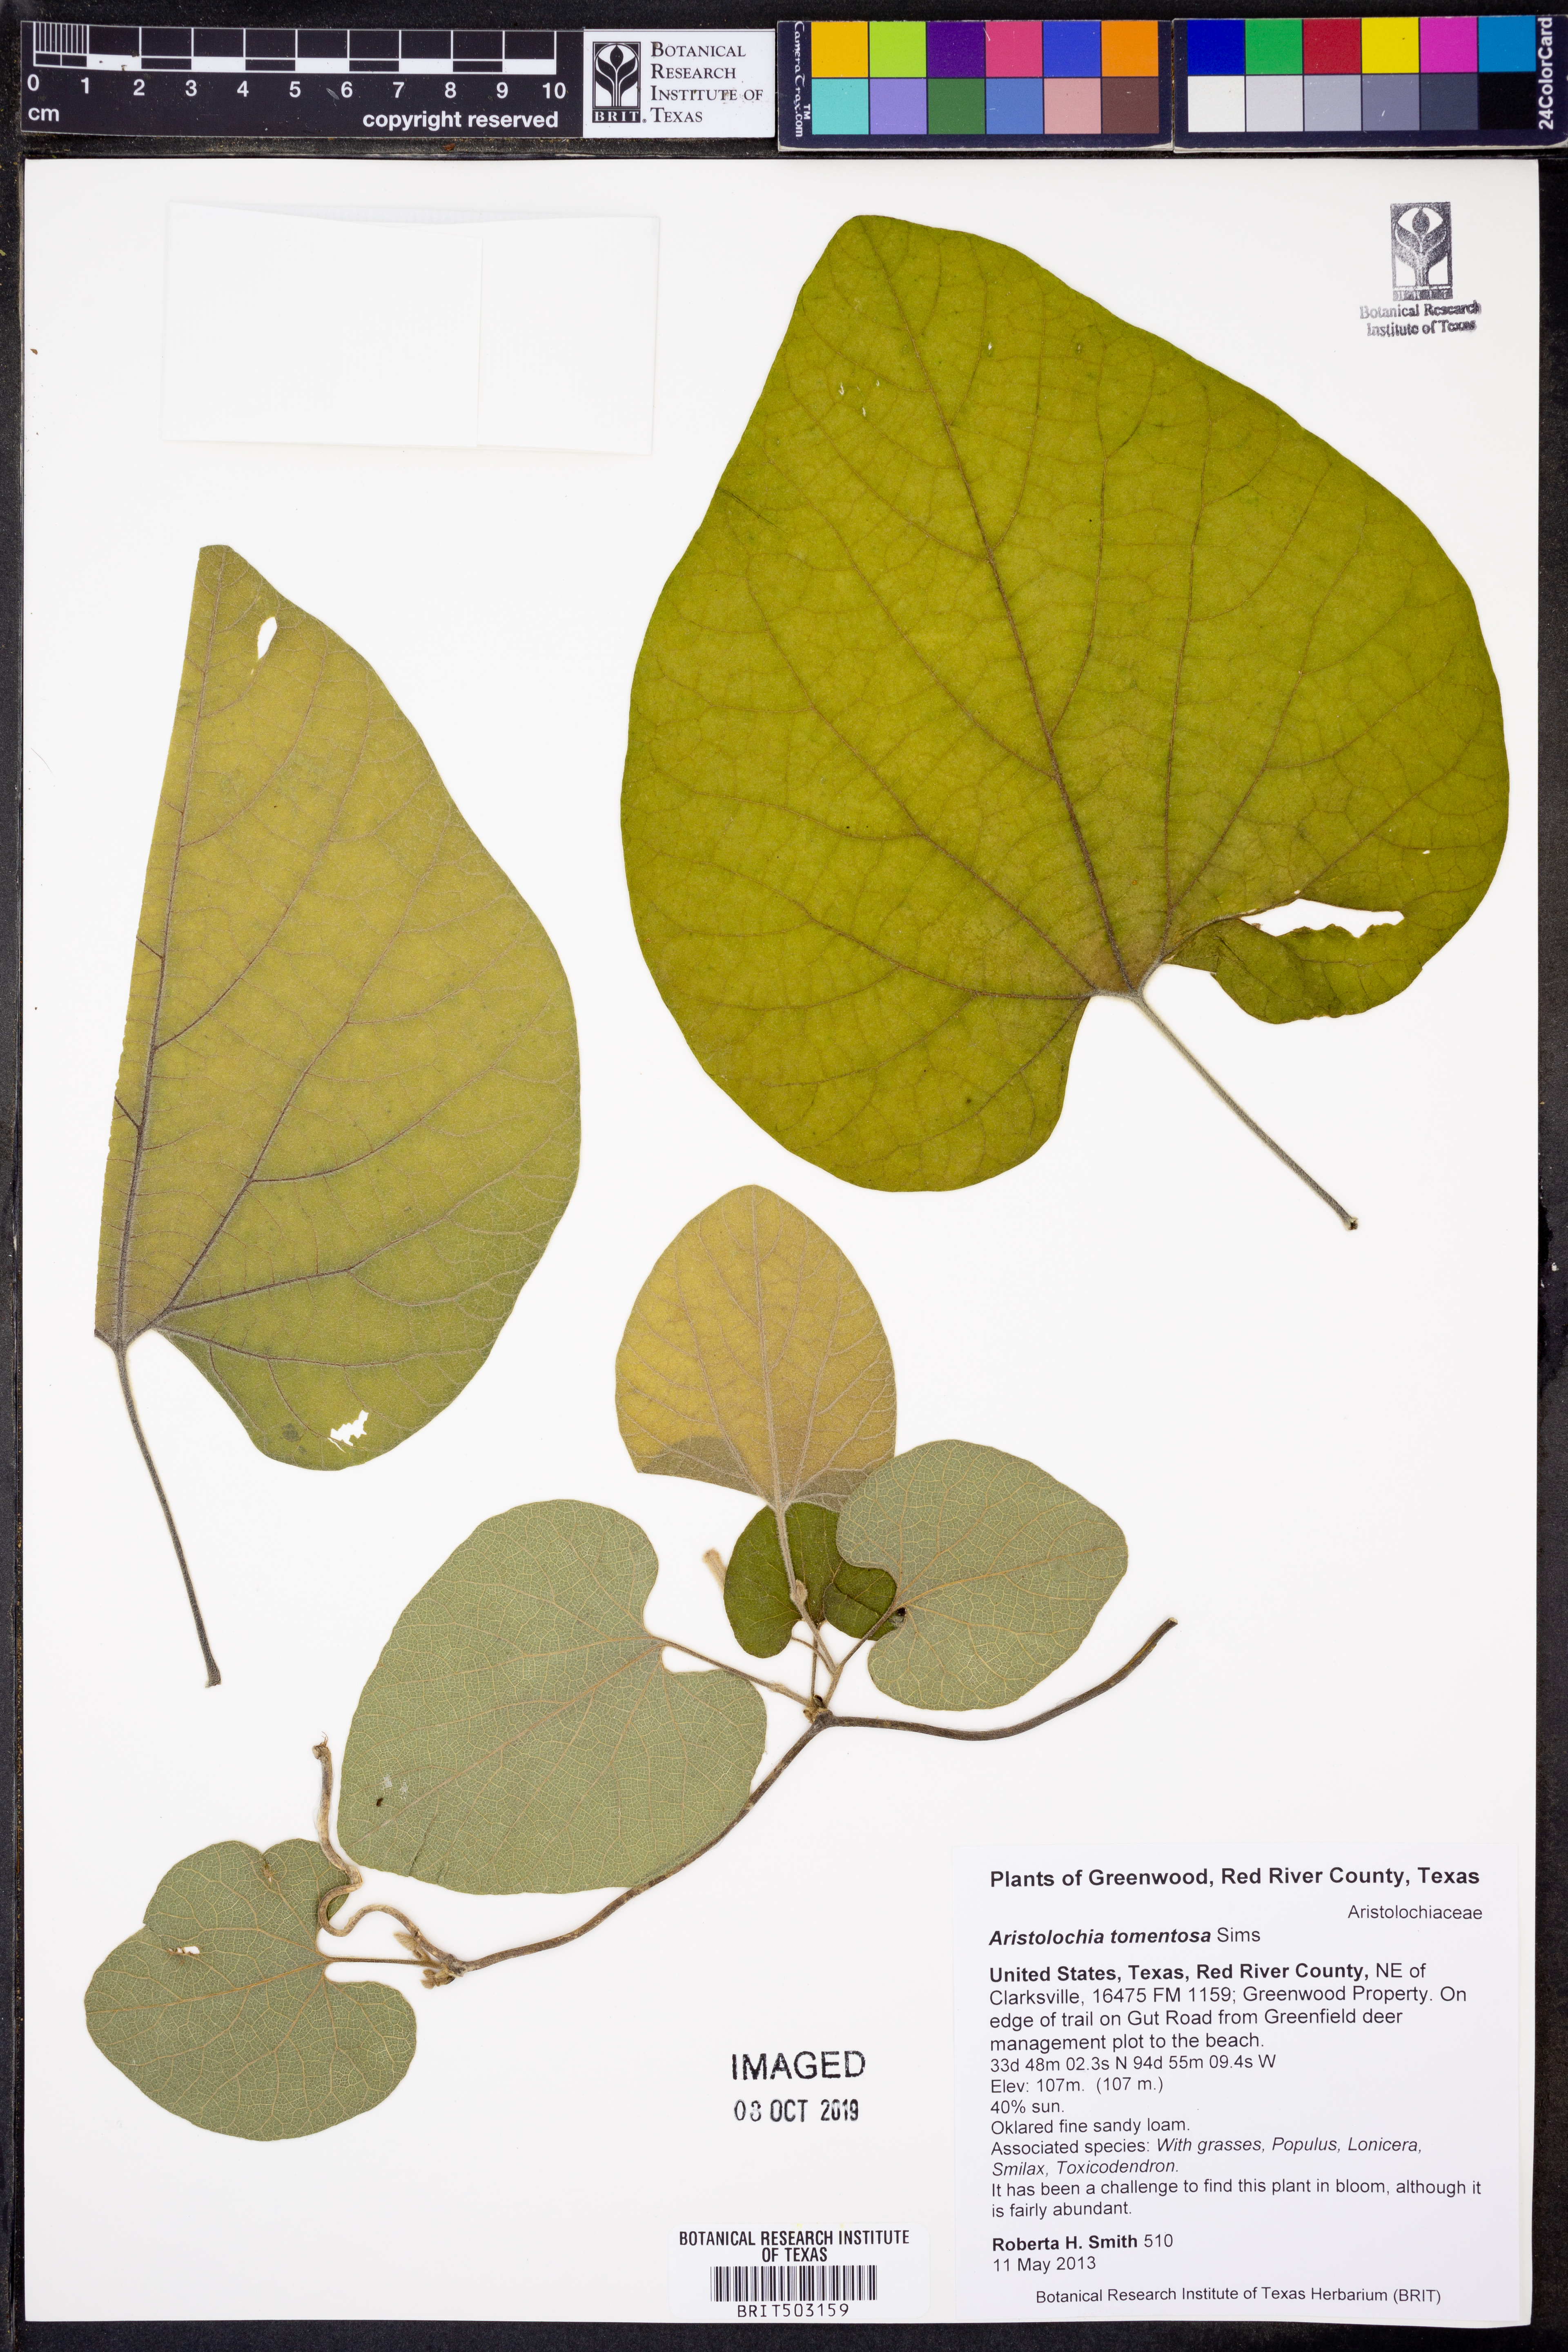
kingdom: Plantae
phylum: Tracheophyta
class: Magnoliopsida
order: Piperales
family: Aristolochiaceae
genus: Isotrema
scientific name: Isotrema tomentosum
